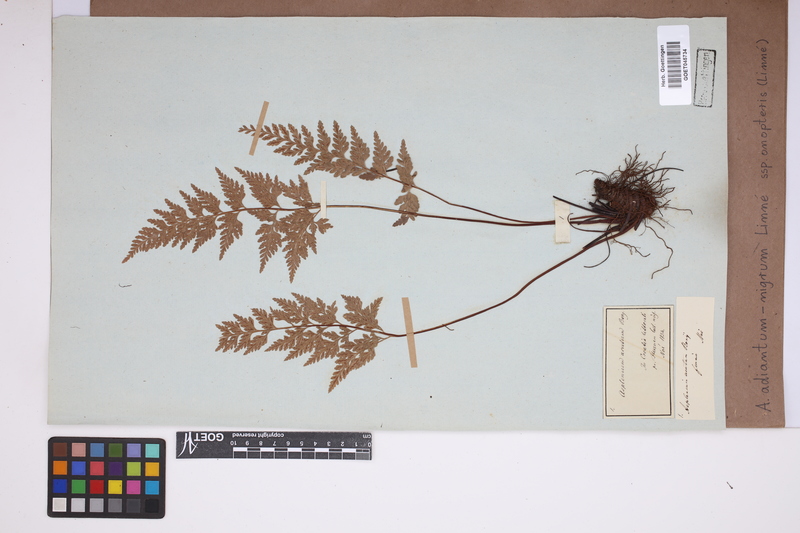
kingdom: Plantae
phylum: Tracheophyta
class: Polypodiopsida
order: Polypodiales
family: Aspleniaceae
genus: Asplenium
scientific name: Asplenium onopteris
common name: Irish spleenwort
